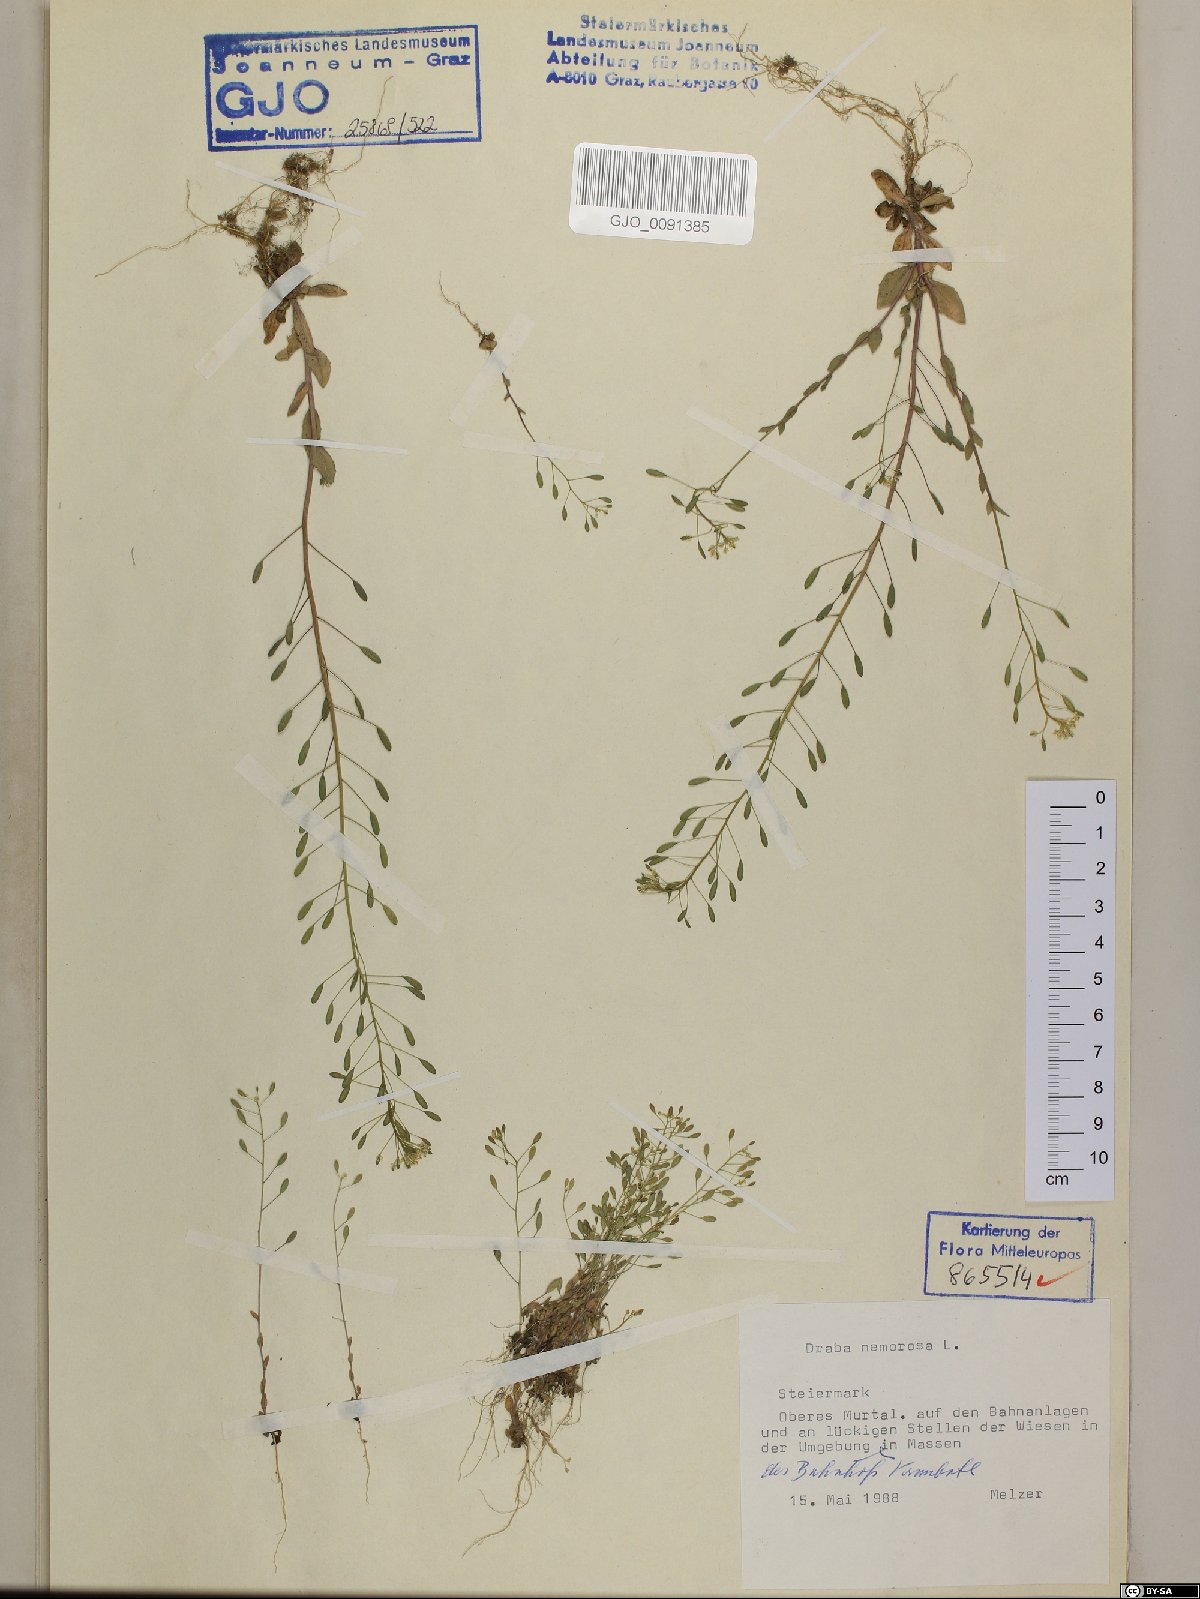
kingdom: Plantae
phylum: Tracheophyta
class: Magnoliopsida
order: Brassicales
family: Brassicaceae
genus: Draba
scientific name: Draba nemorosa
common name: Wood whitlow-grass
